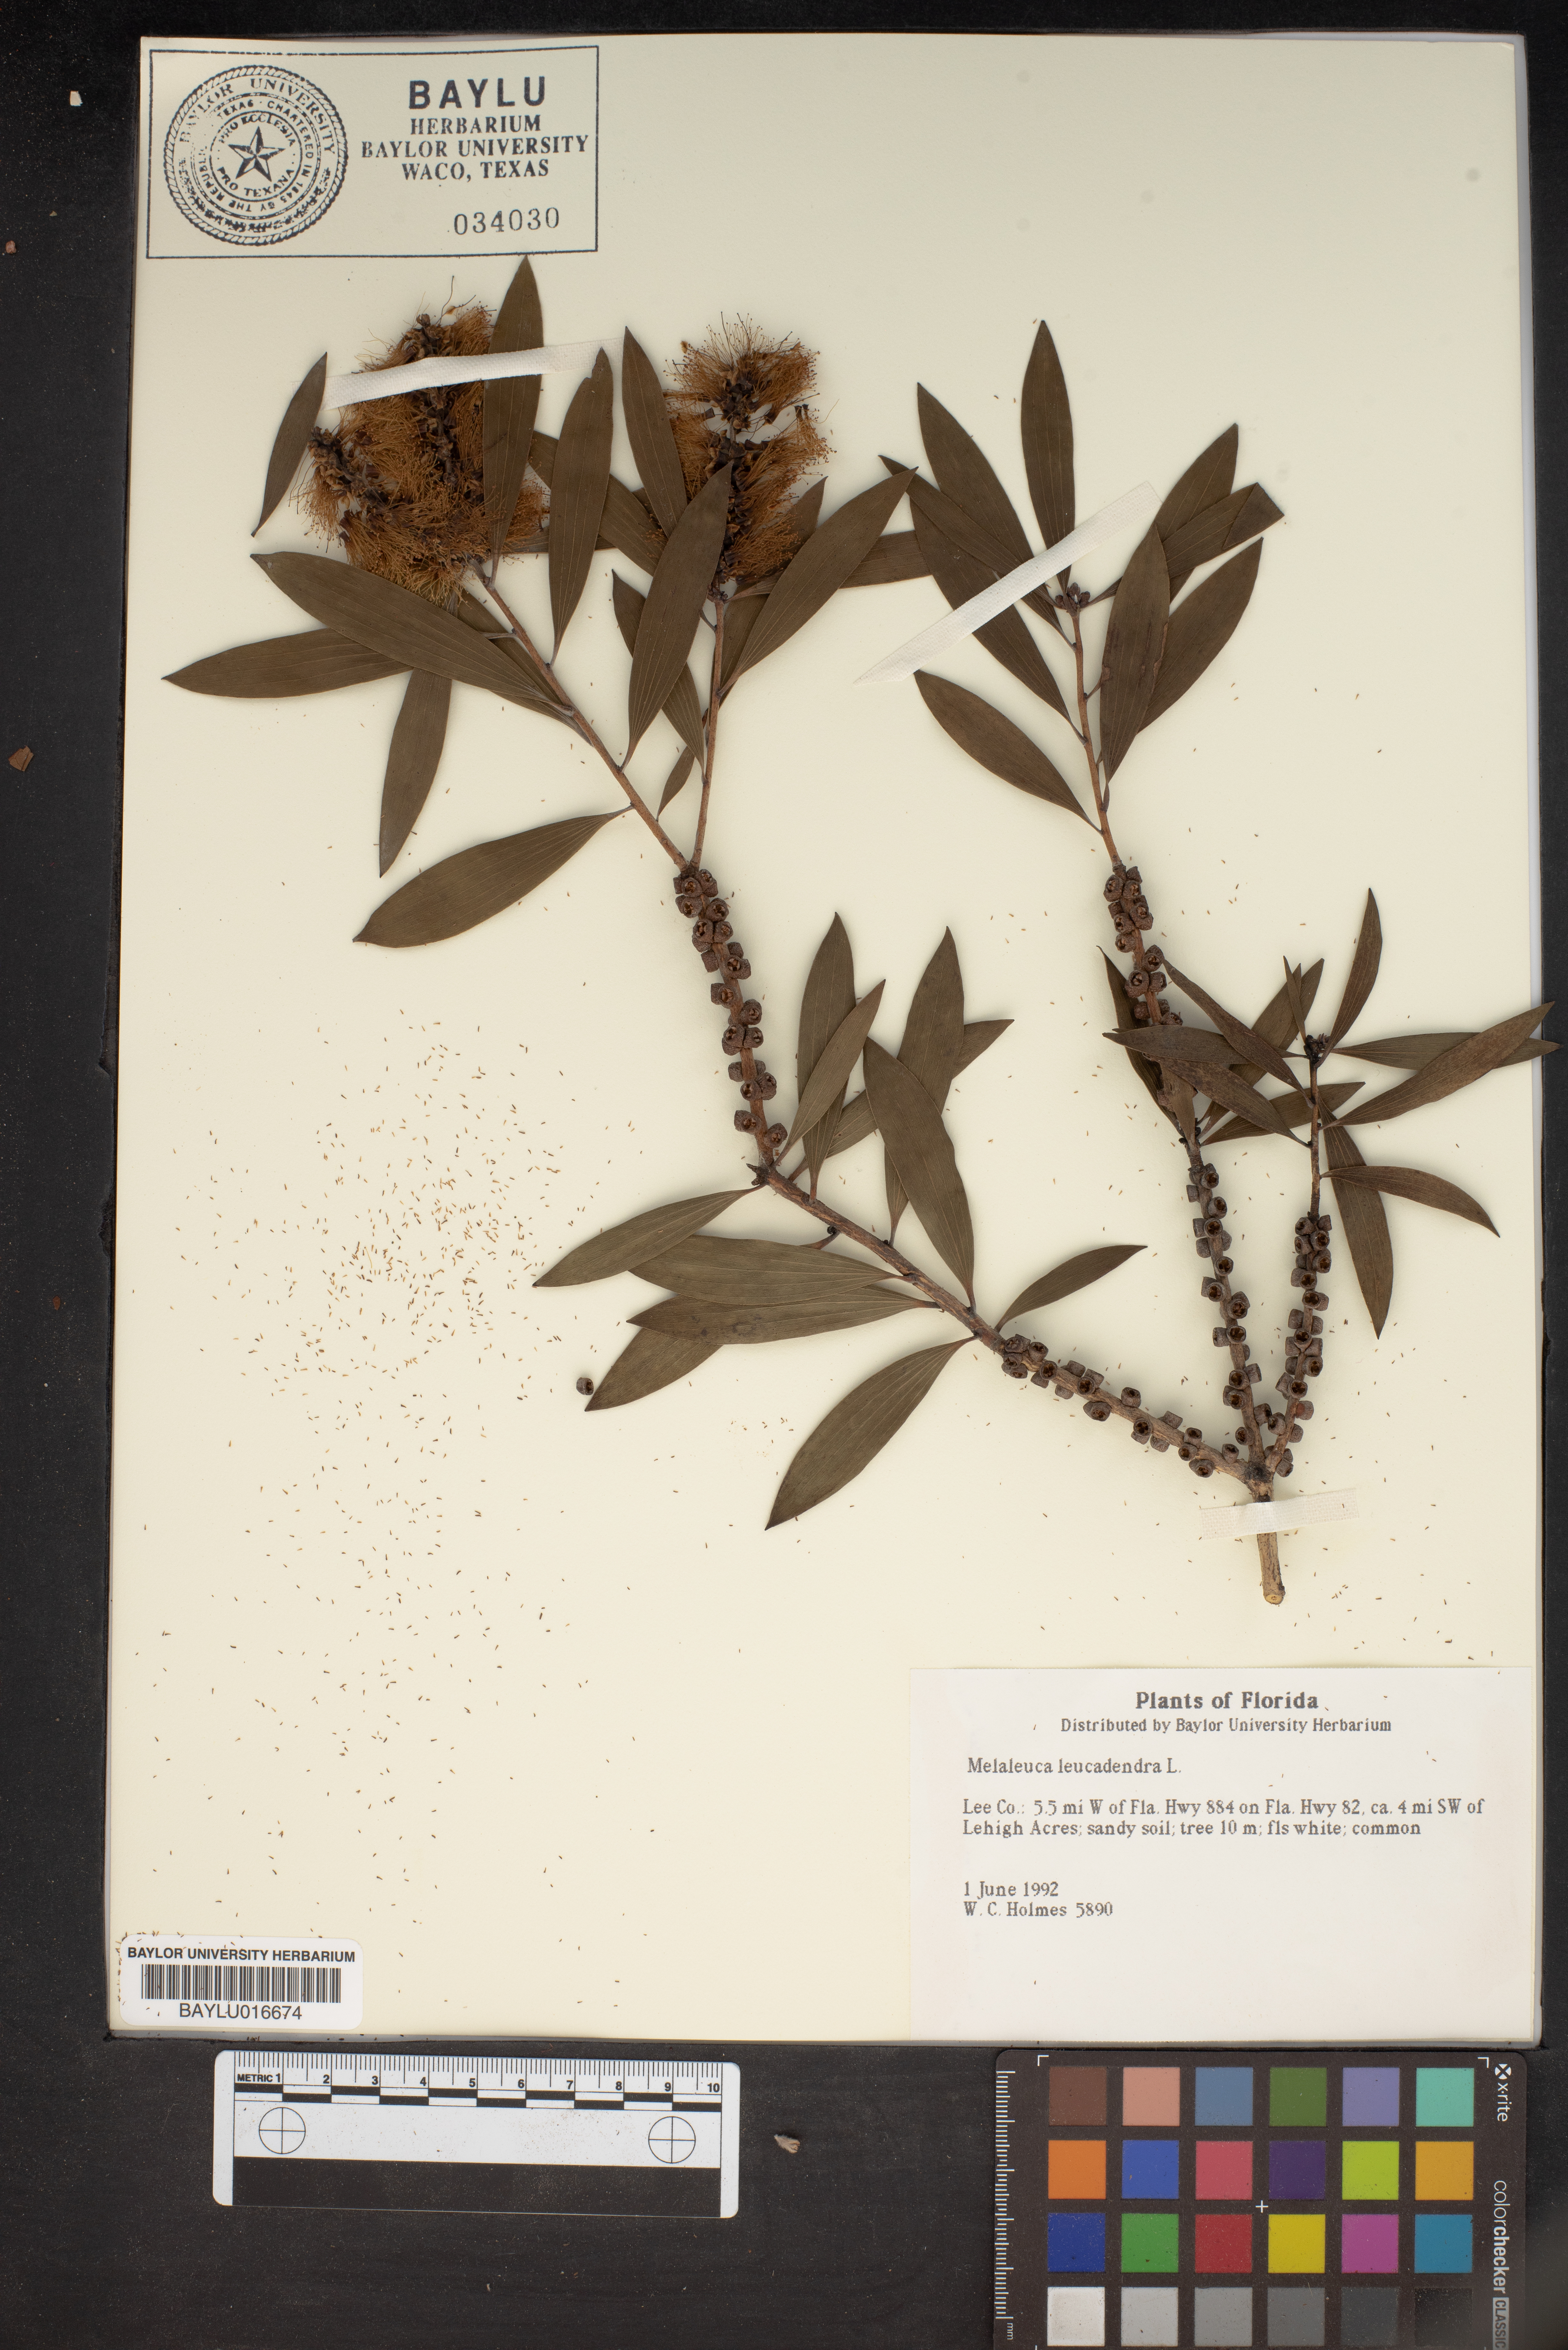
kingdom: Plantae
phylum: Tracheophyta
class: Magnoliopsida
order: Myrtales
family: Myrtaceae
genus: Melaleuca
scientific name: Melaleuca leucadendra
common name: Weeping paperbark
